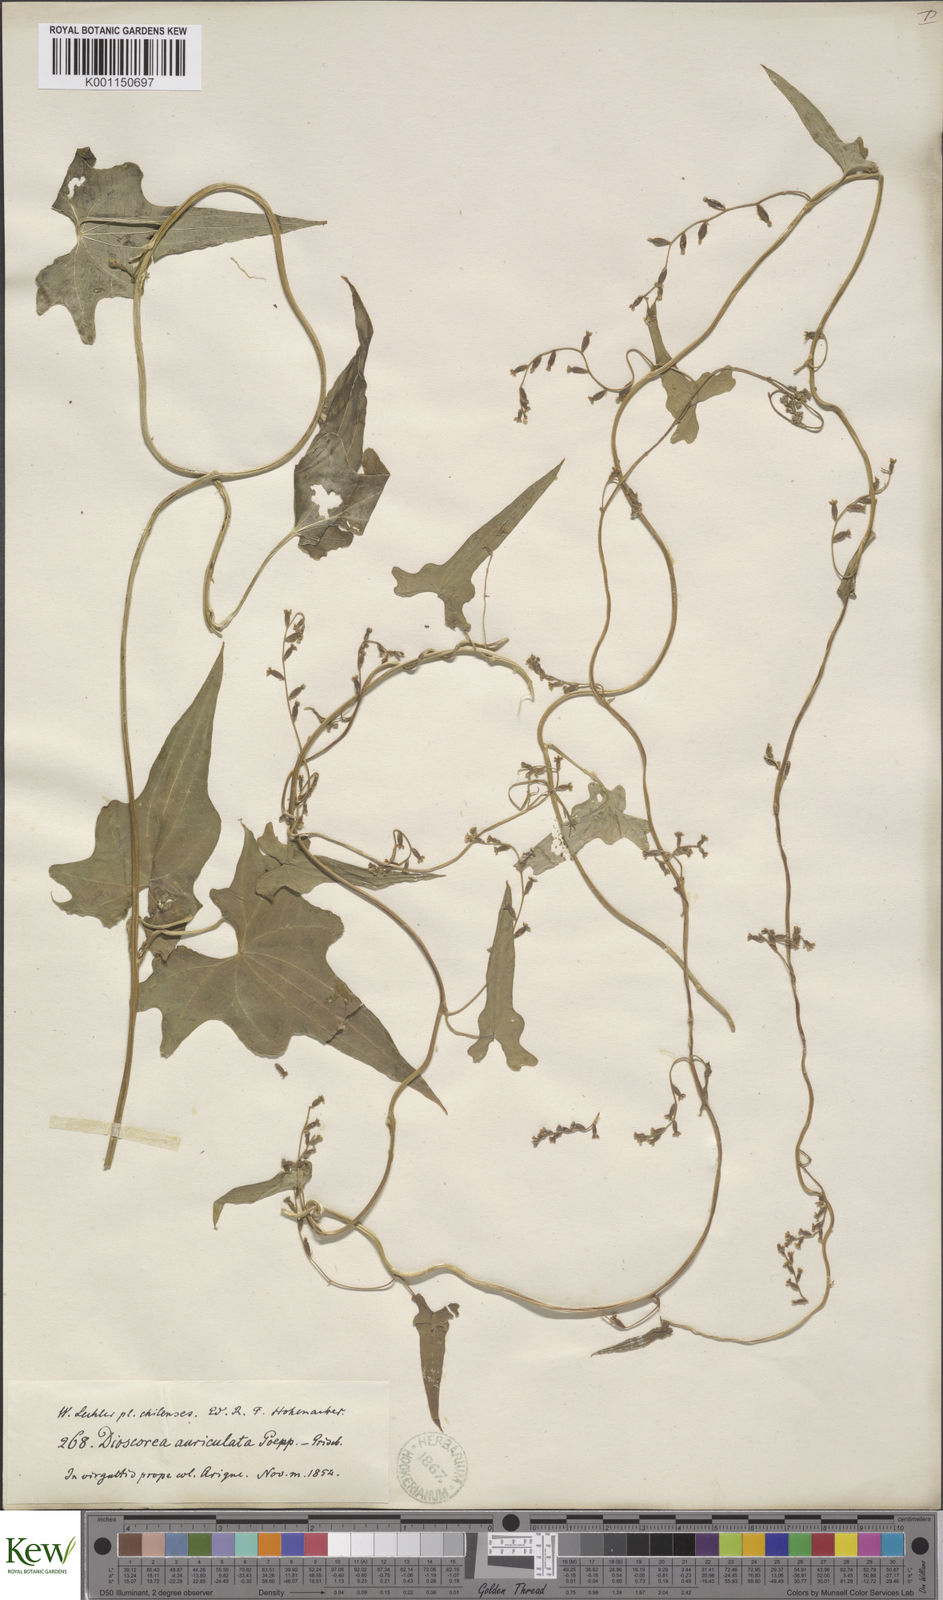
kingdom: Plantae
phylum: Tracheophyta
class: Liliopsida
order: Dioscoreales
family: Dioscoreaceae
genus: Dioscorea
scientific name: Dioscorea auriculata
